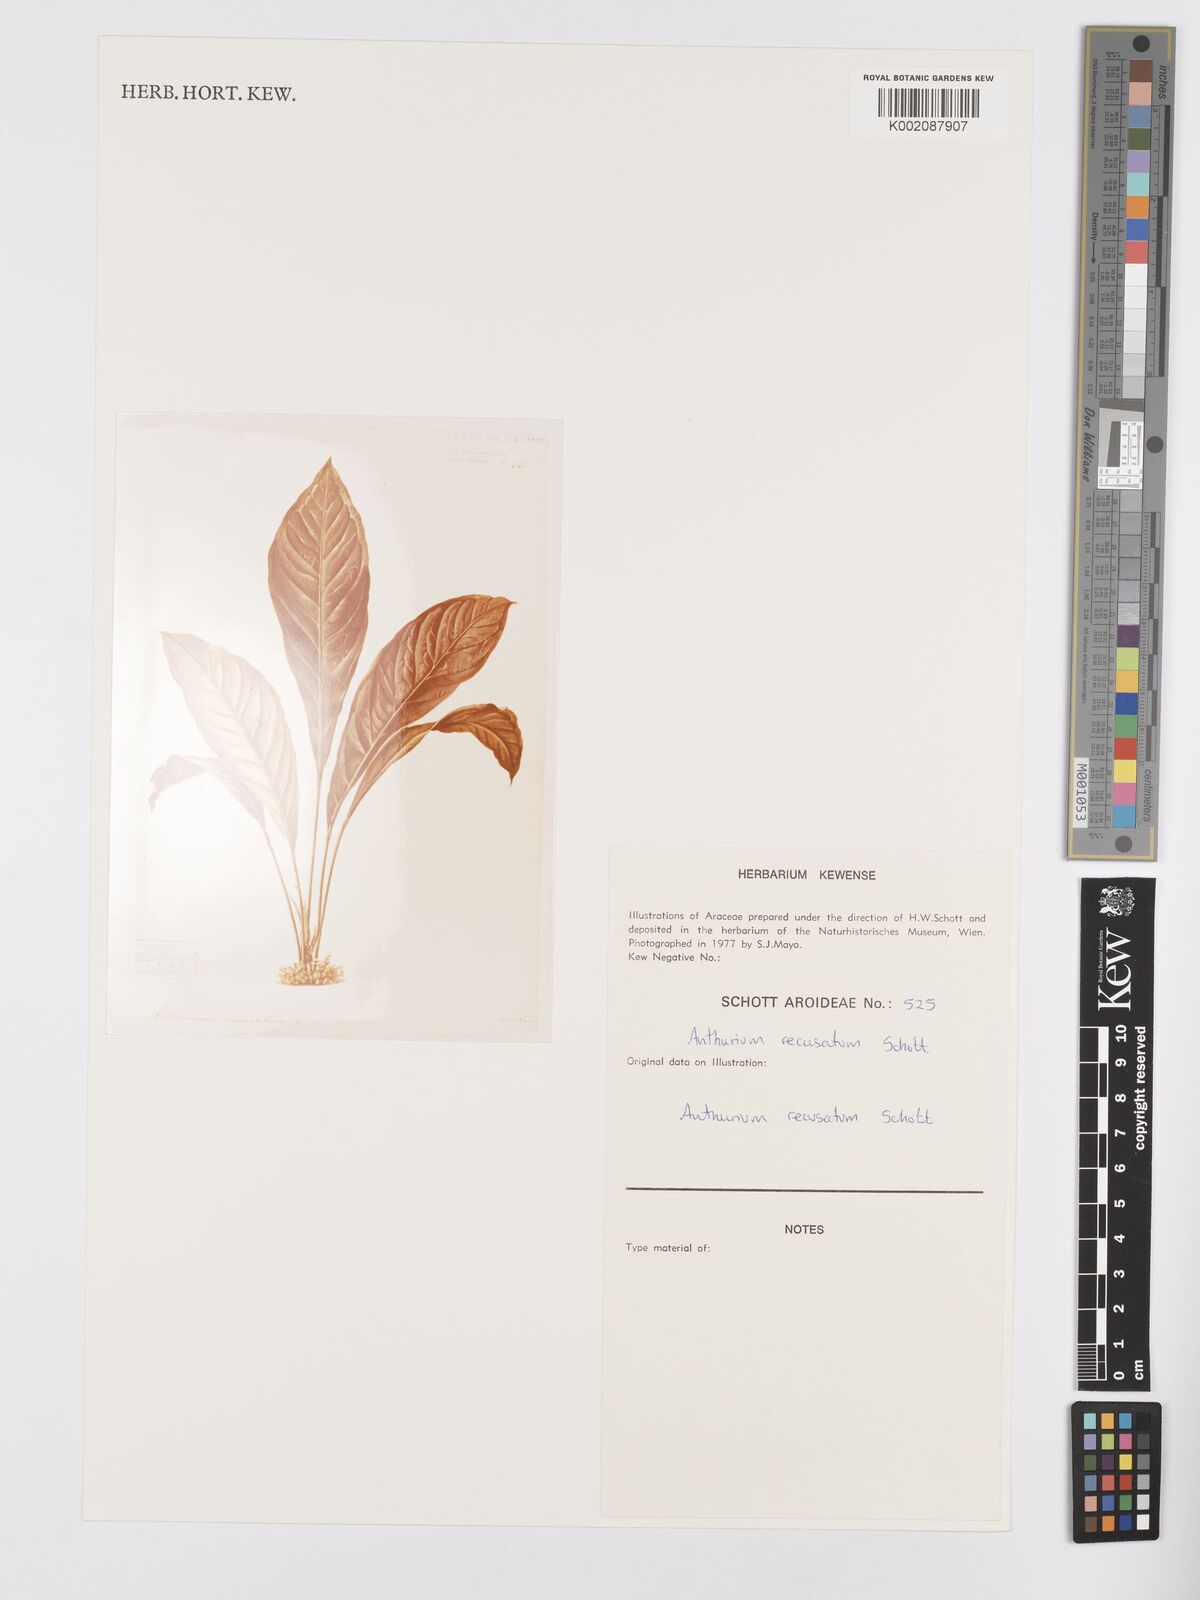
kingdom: Plantae
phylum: Tracheophyta
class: Liliopsida
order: Alismatales
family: Araceae
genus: Anthurium
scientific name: Anthurium fendleri
